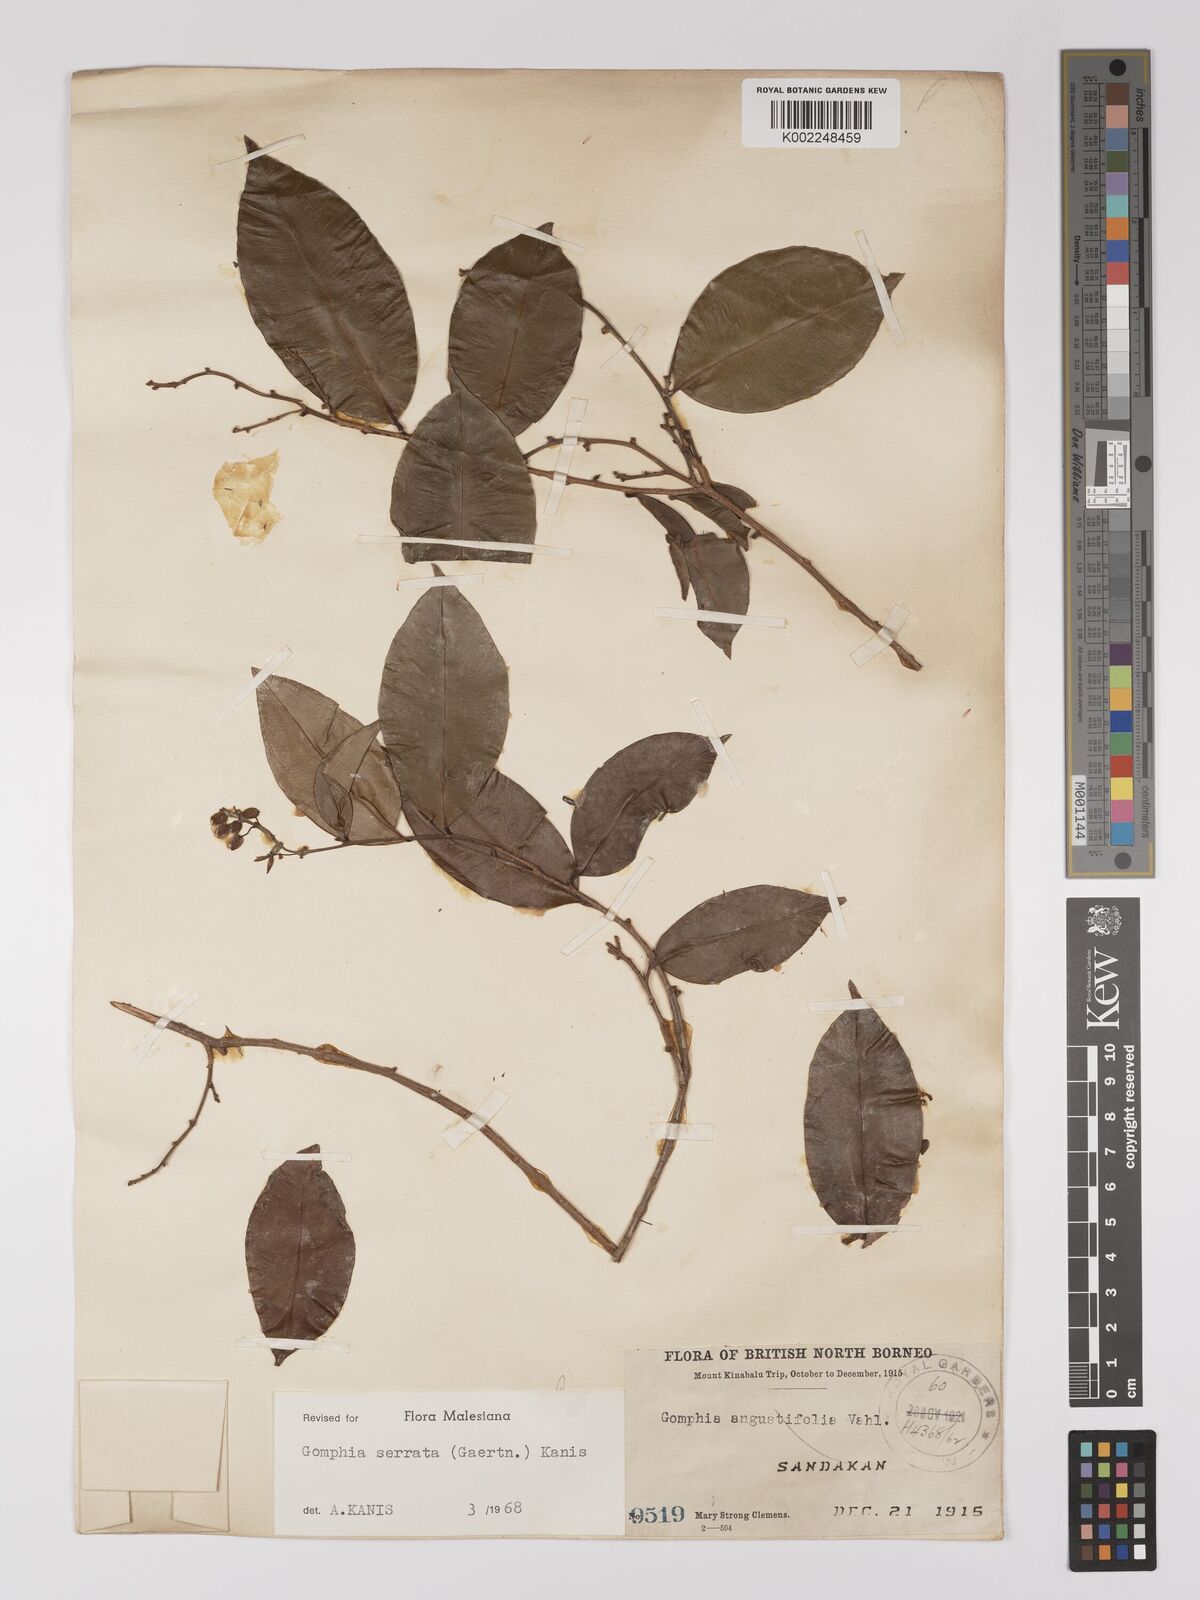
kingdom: Plantae
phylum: Tracheophyta
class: Magnoliopsida
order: Malpighiales
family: Ochnaceae
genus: Gomphia
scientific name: Gomphia serrata
